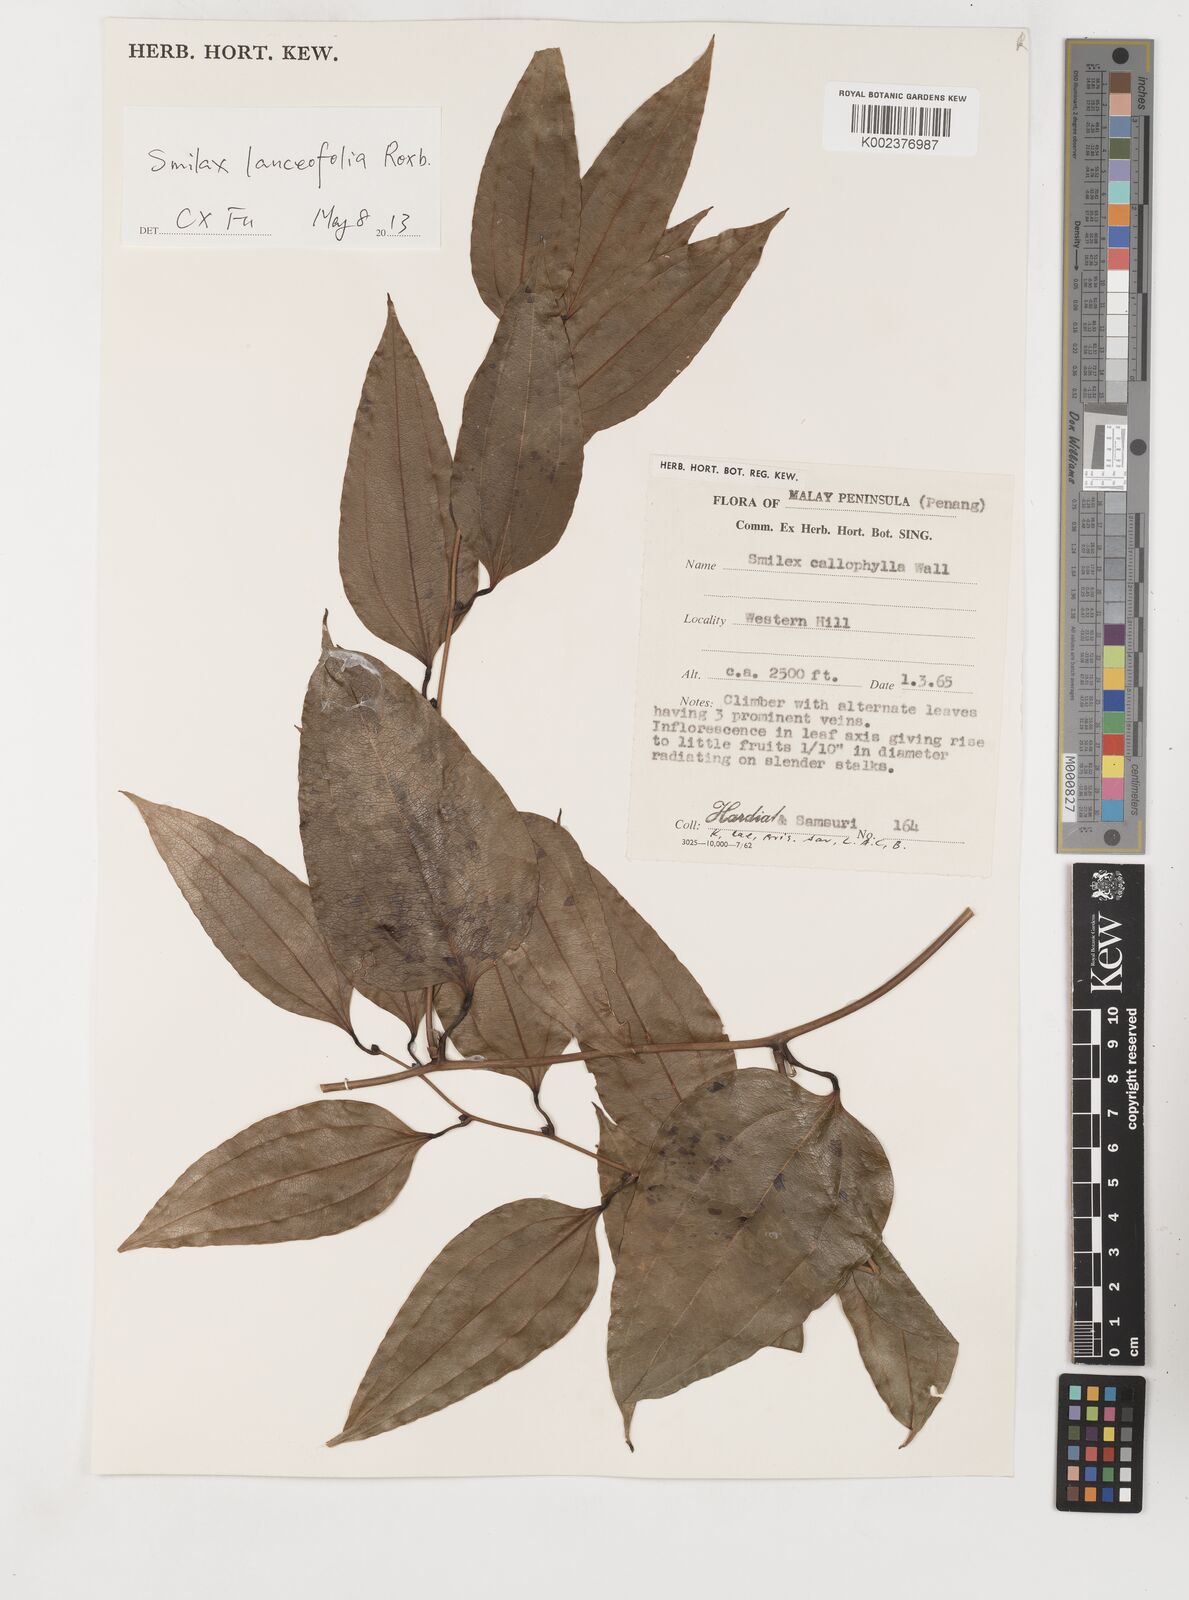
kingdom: Plantae
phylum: Tracheophyta
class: Liliopsida
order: Liliales
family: Smilacaceae
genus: Smilax
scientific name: Smilax calophylla
